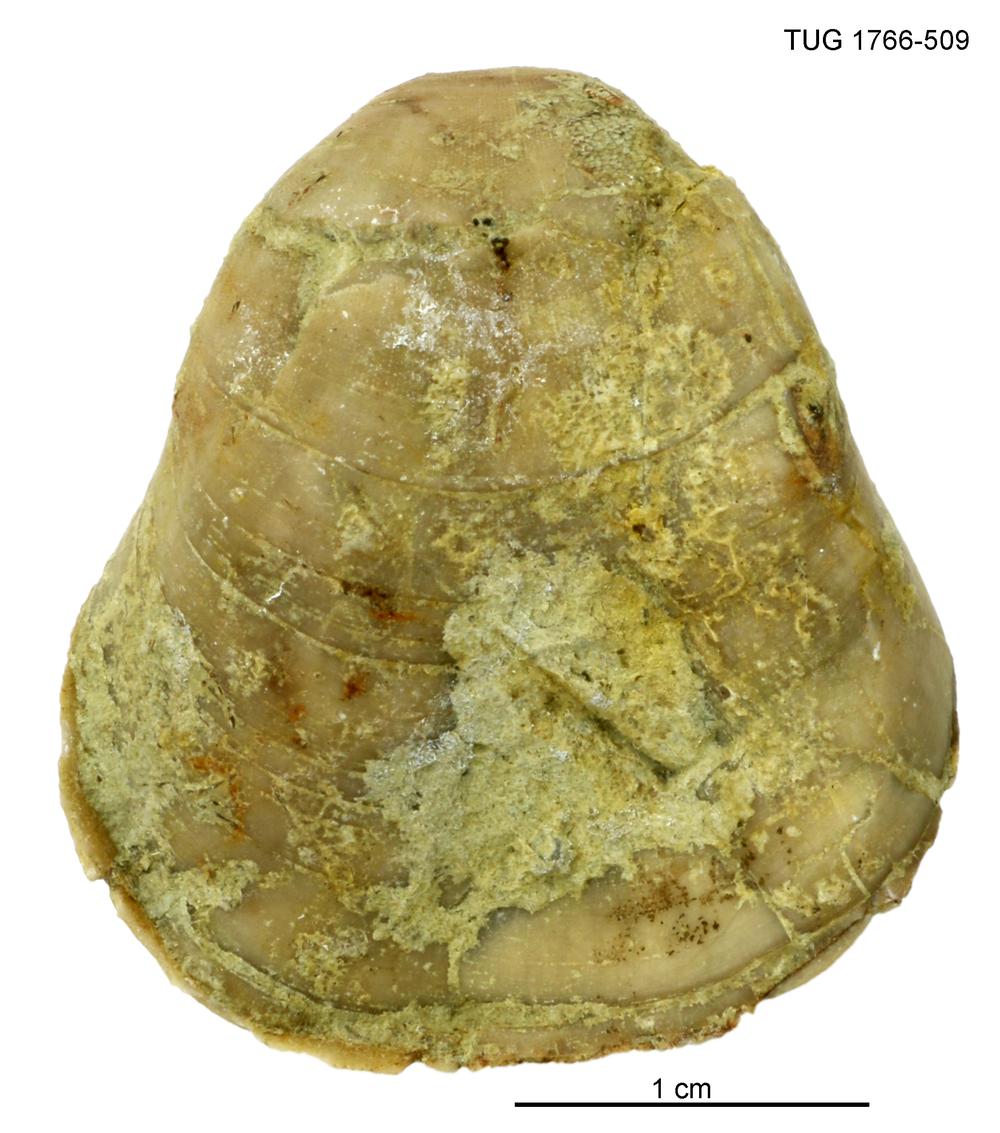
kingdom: Animalia
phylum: Brachiopoda
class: Rhynchonellata
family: Porambonitidae
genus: Porambonites
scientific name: Porambonites
